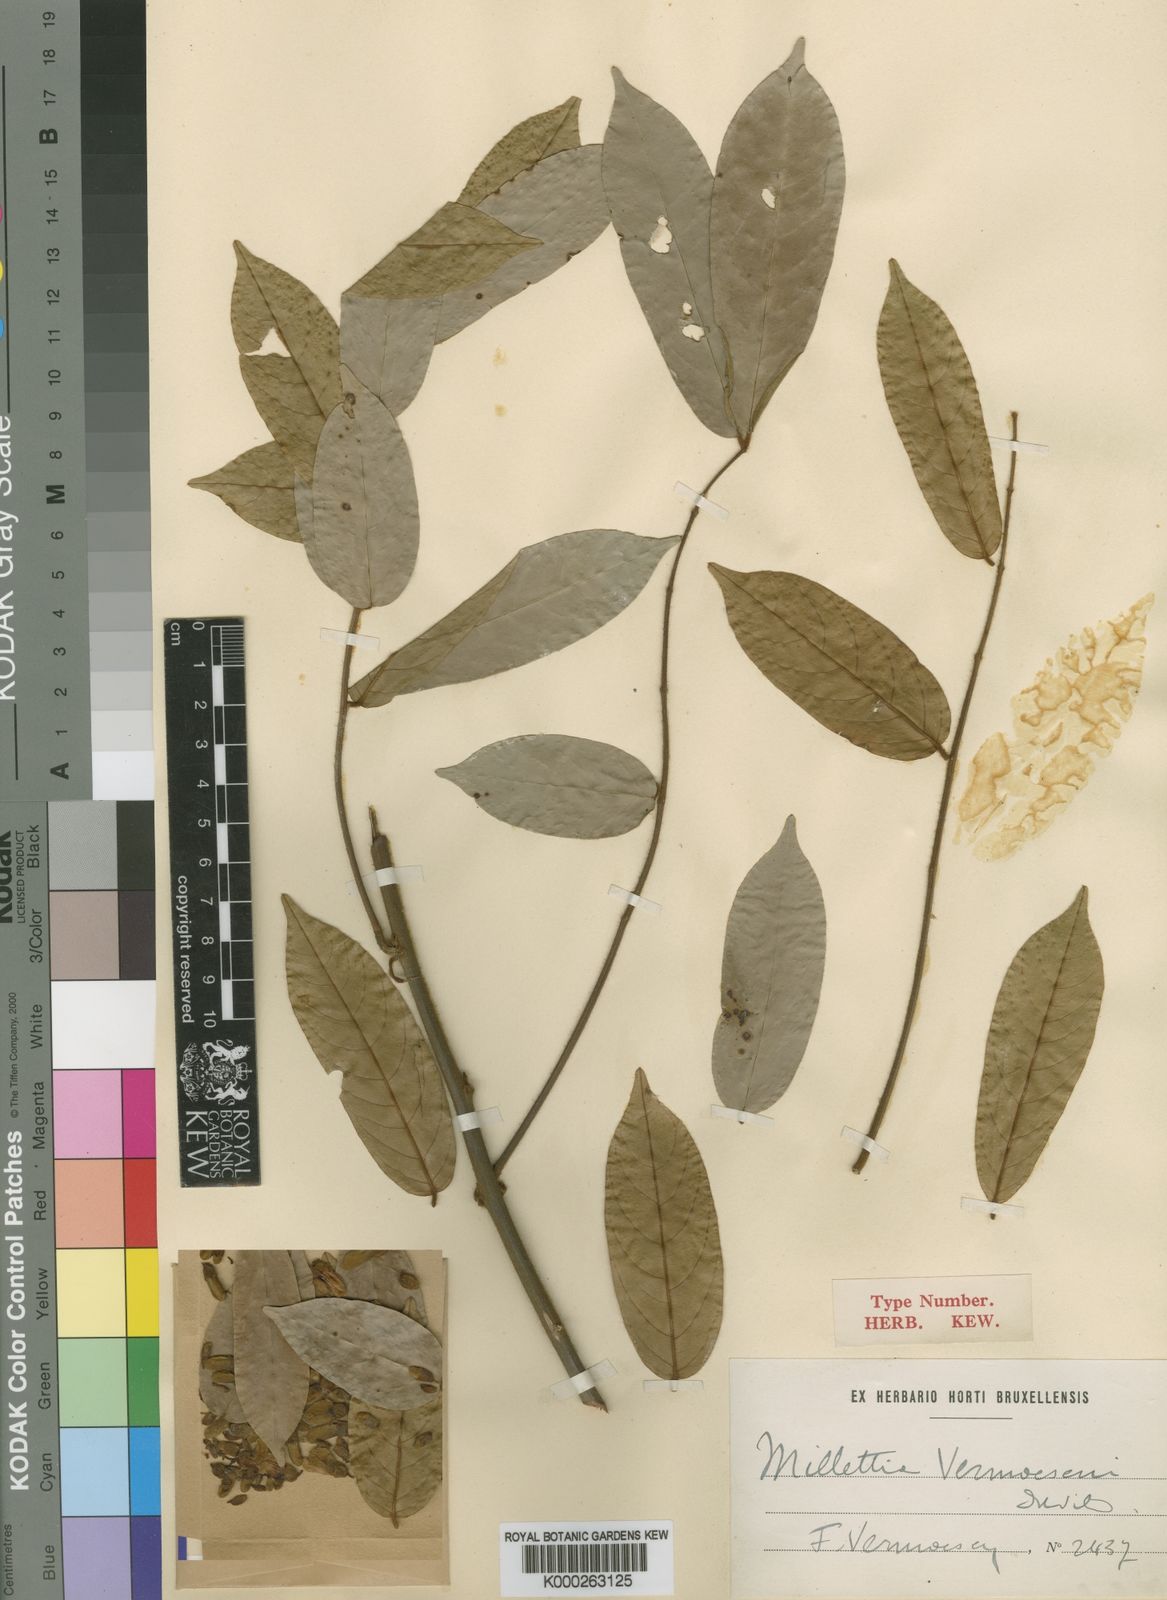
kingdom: Plantae
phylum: Tracheophyta
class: Magnoliopsida
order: Fabales
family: Fabaceae
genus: Millettia
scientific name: Millettia comosa
